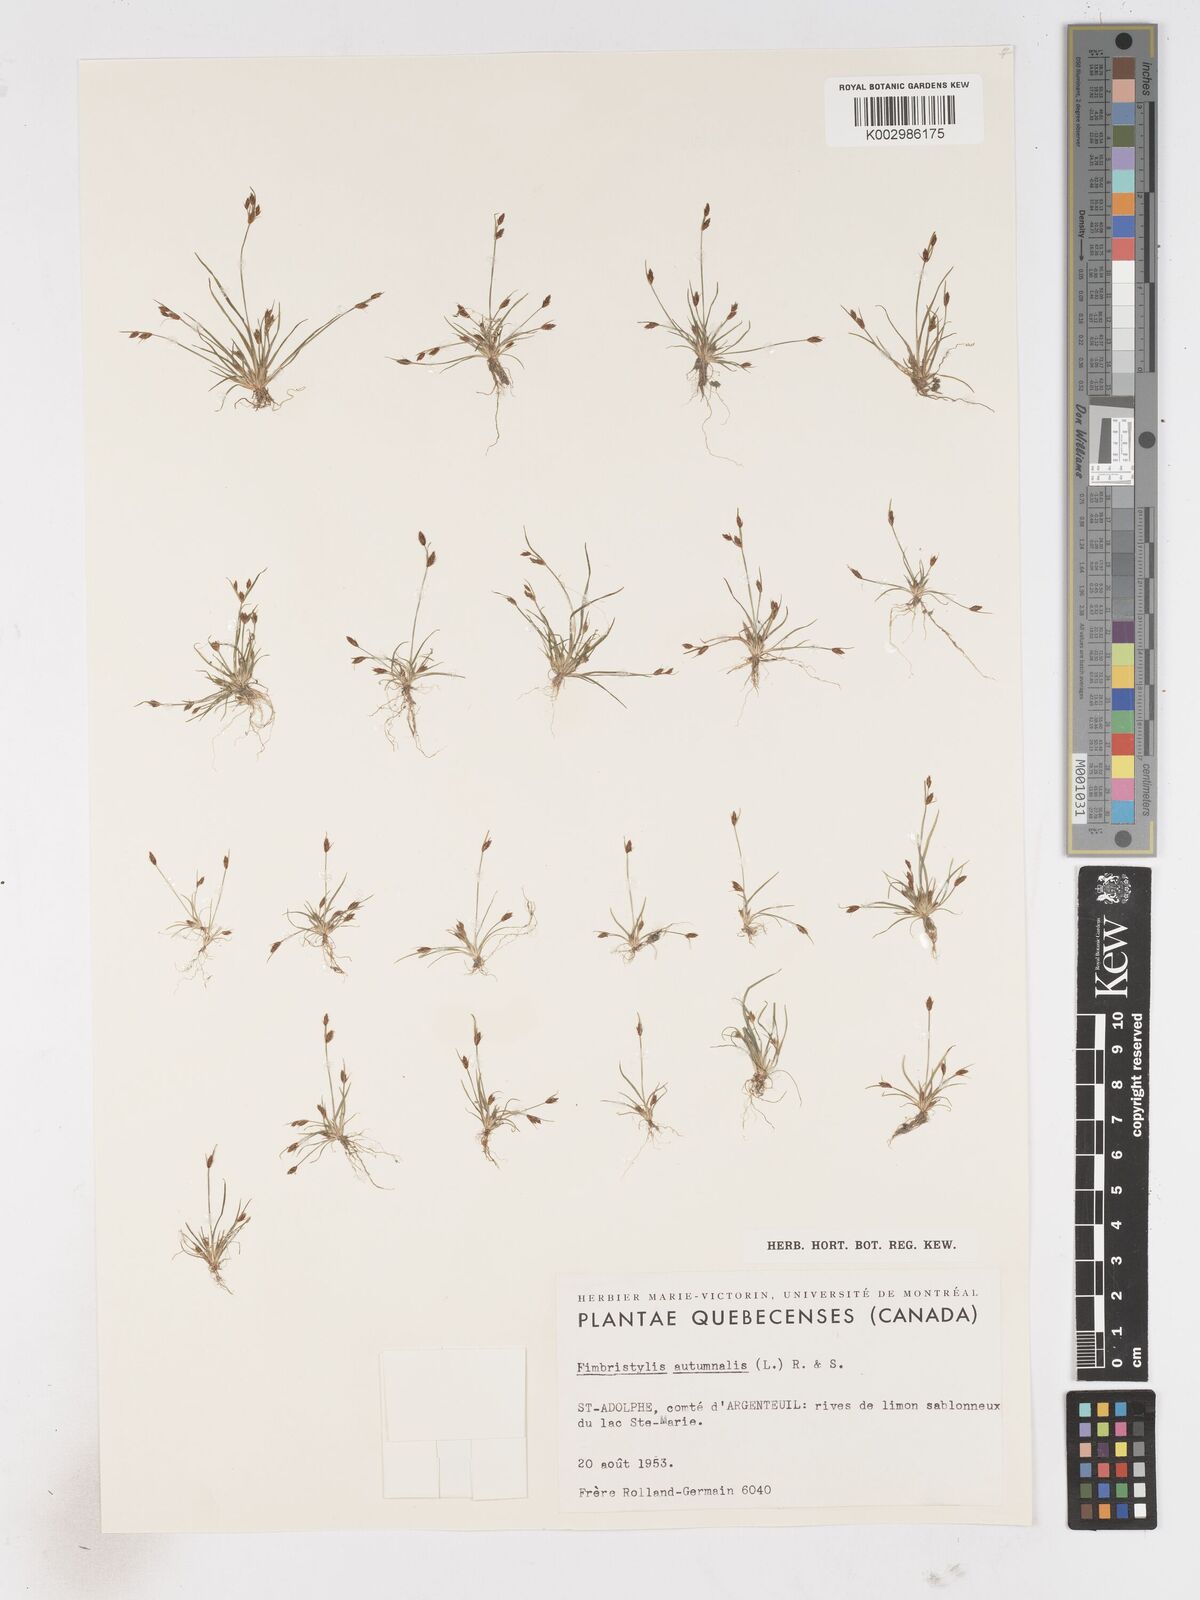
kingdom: Plantae
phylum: Tracheophyta
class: Liliopsida
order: Poales
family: Cyperaceae
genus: Fimbristylis
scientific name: Fimbristylis autumnalis
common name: Slender fimbristylis
